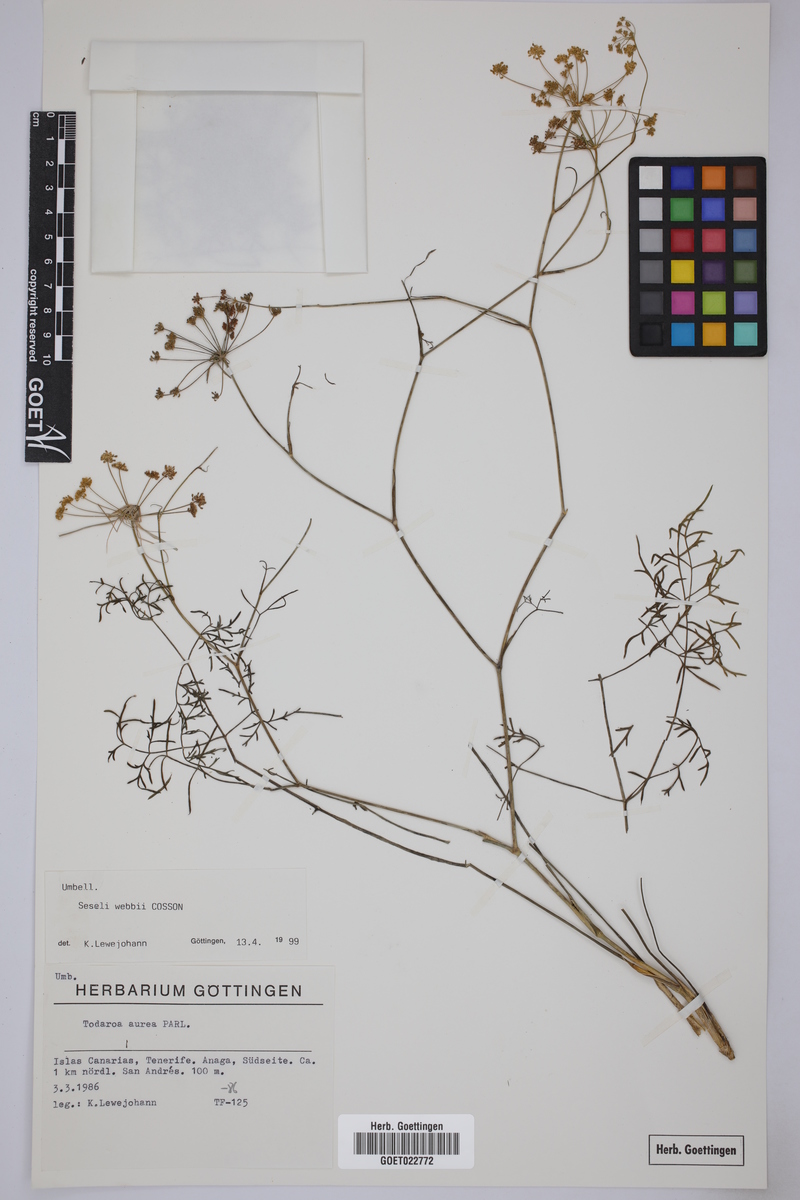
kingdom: Plantae
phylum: Tracheophyta
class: Magnoliopsida
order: Apiales
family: Apiaceae
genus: Rutheopsis
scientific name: Rutheopsis tortuosa
